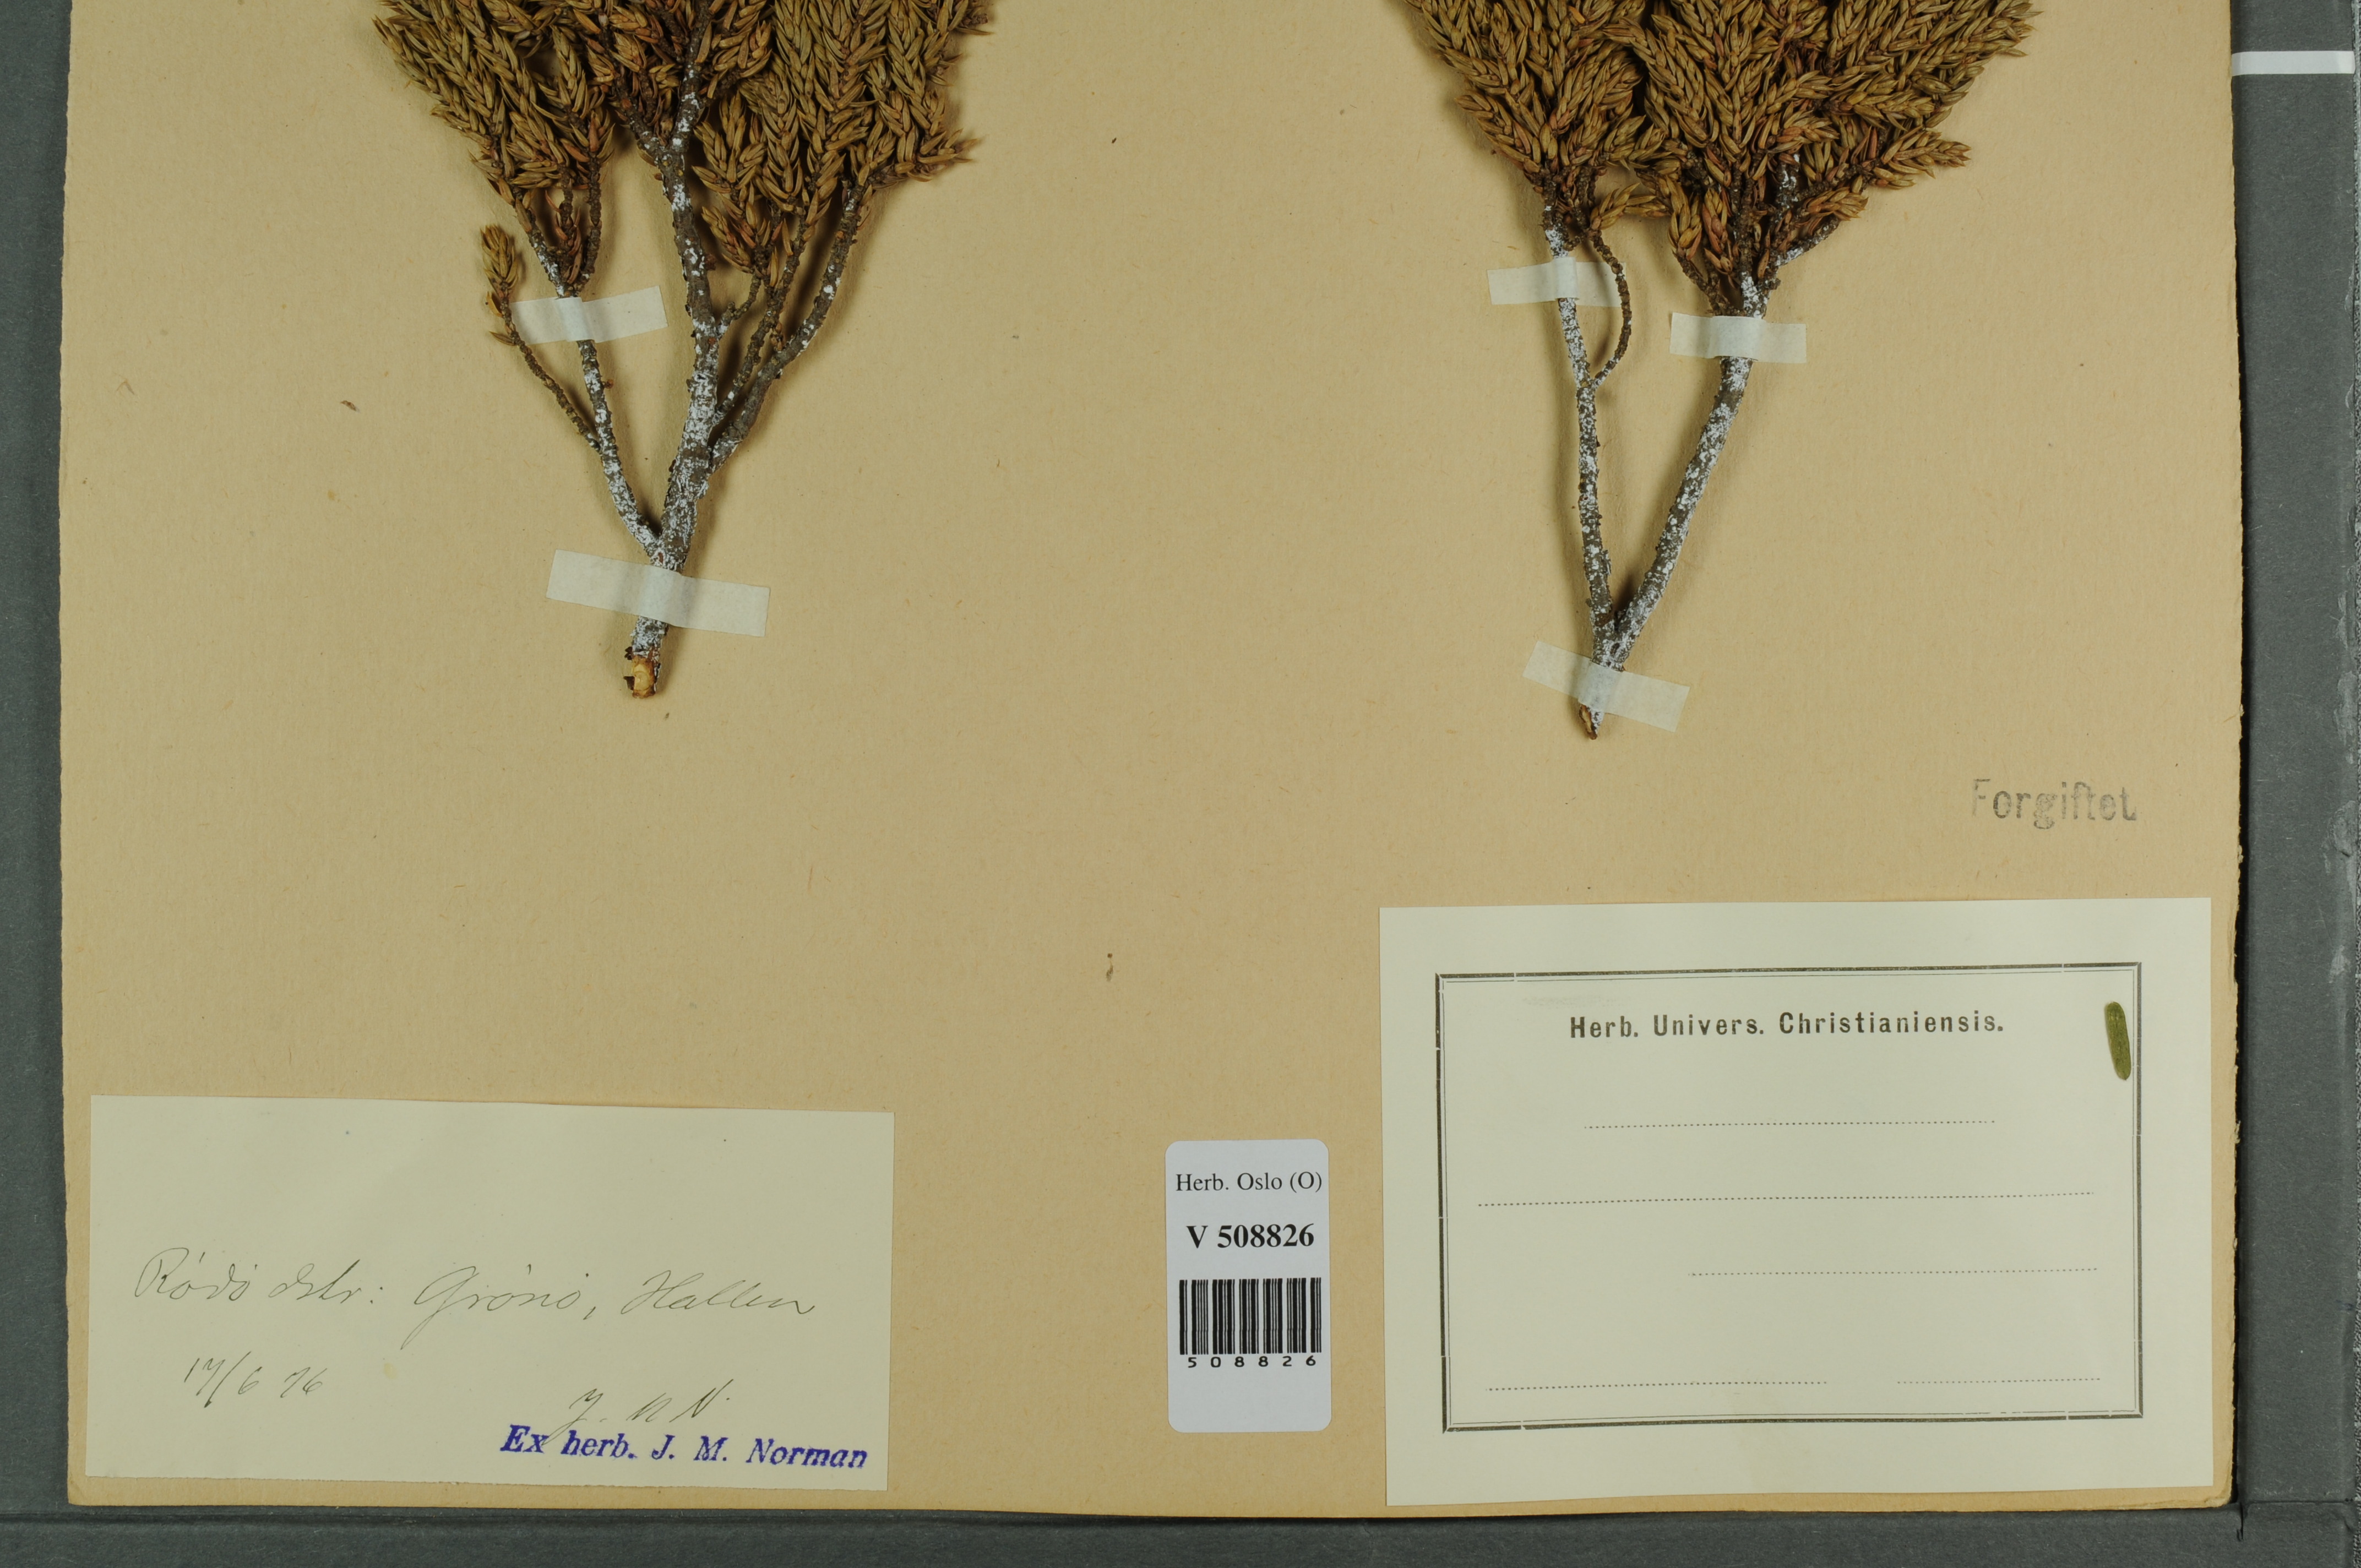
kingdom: Plantae
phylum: Tracheophyta
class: Pinopsida
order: Pinales
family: Cupressaceae
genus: Juniperus
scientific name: Juniperus communis
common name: Common juniper
